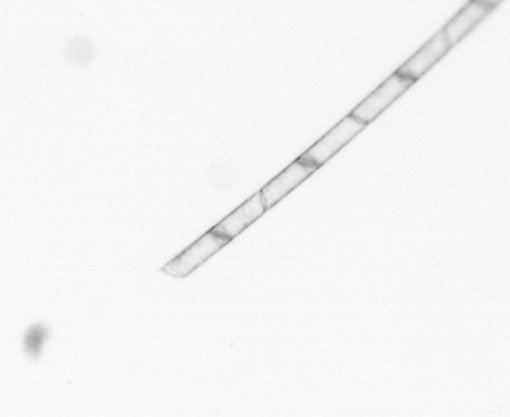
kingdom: Chromista
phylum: Ochrophyta
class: Bacillariophyceae
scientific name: Bacillariophyceae
